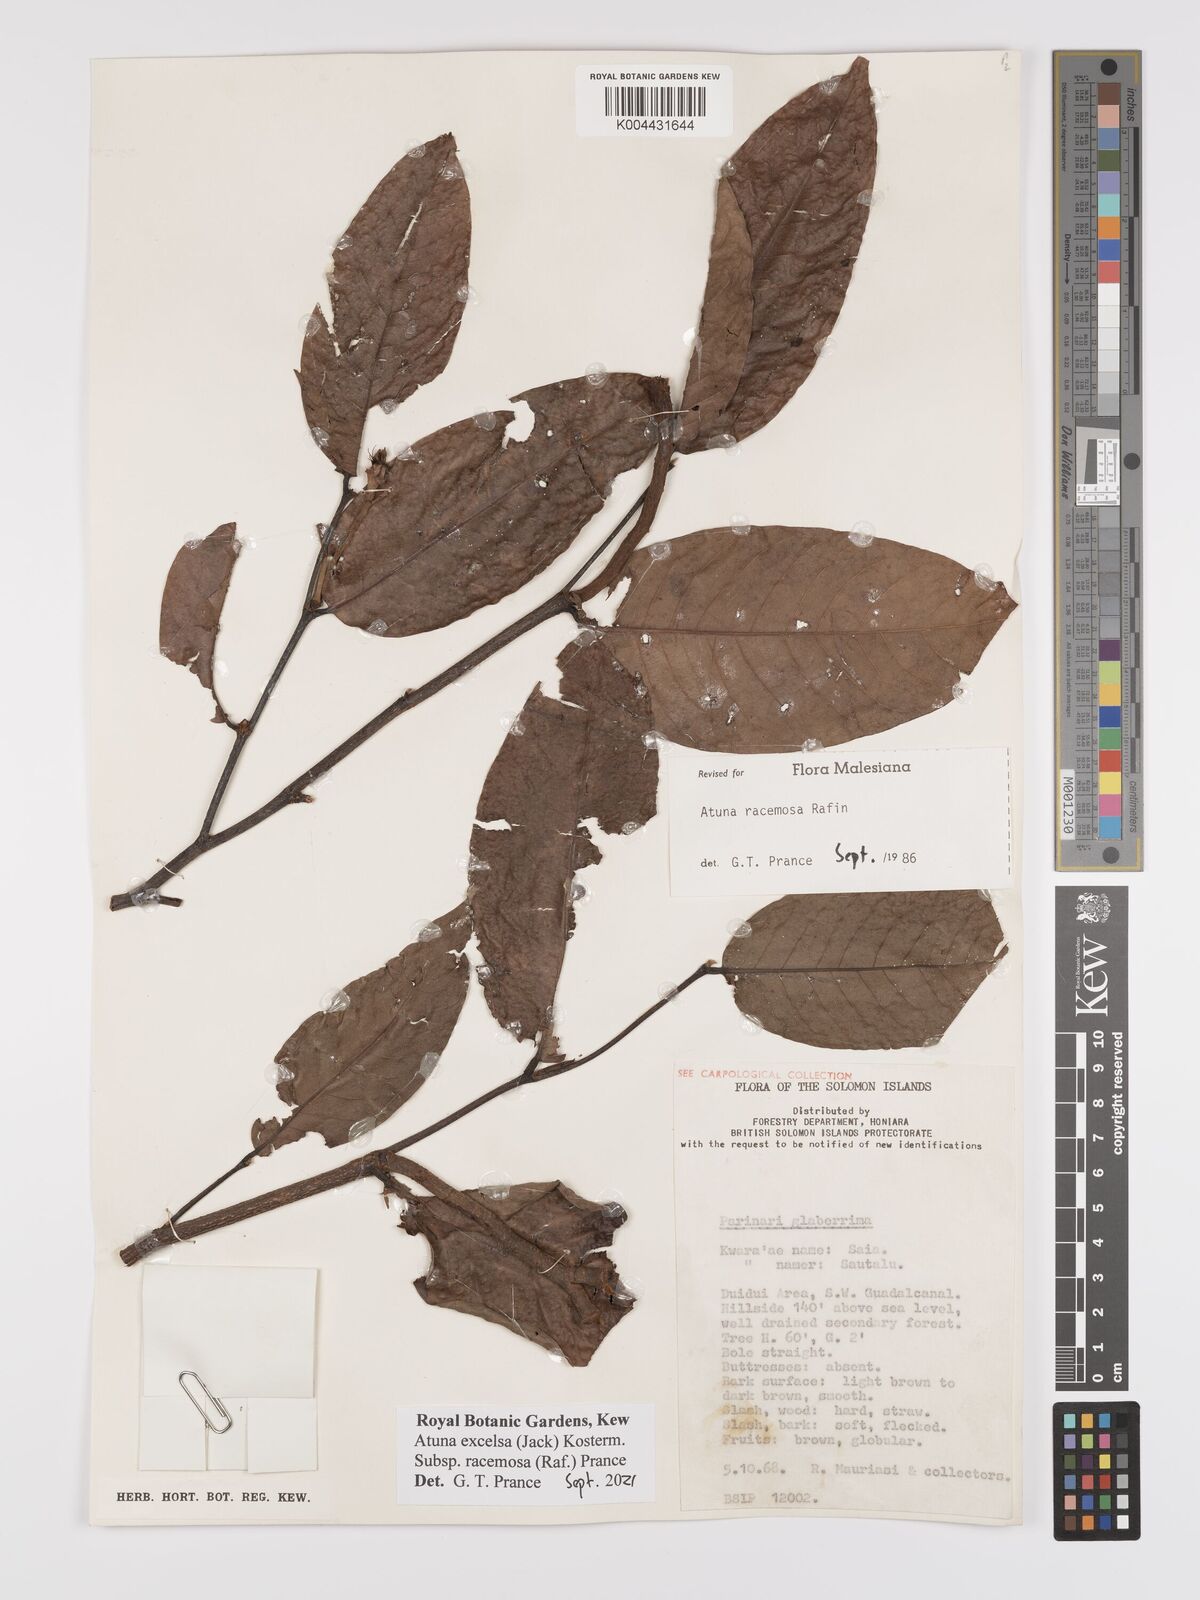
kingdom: Plantae
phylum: Tracheophyta
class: Magnoliopsida
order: Malpighiales
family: Chrysobalanaceae
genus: Atuna
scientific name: Atuna
